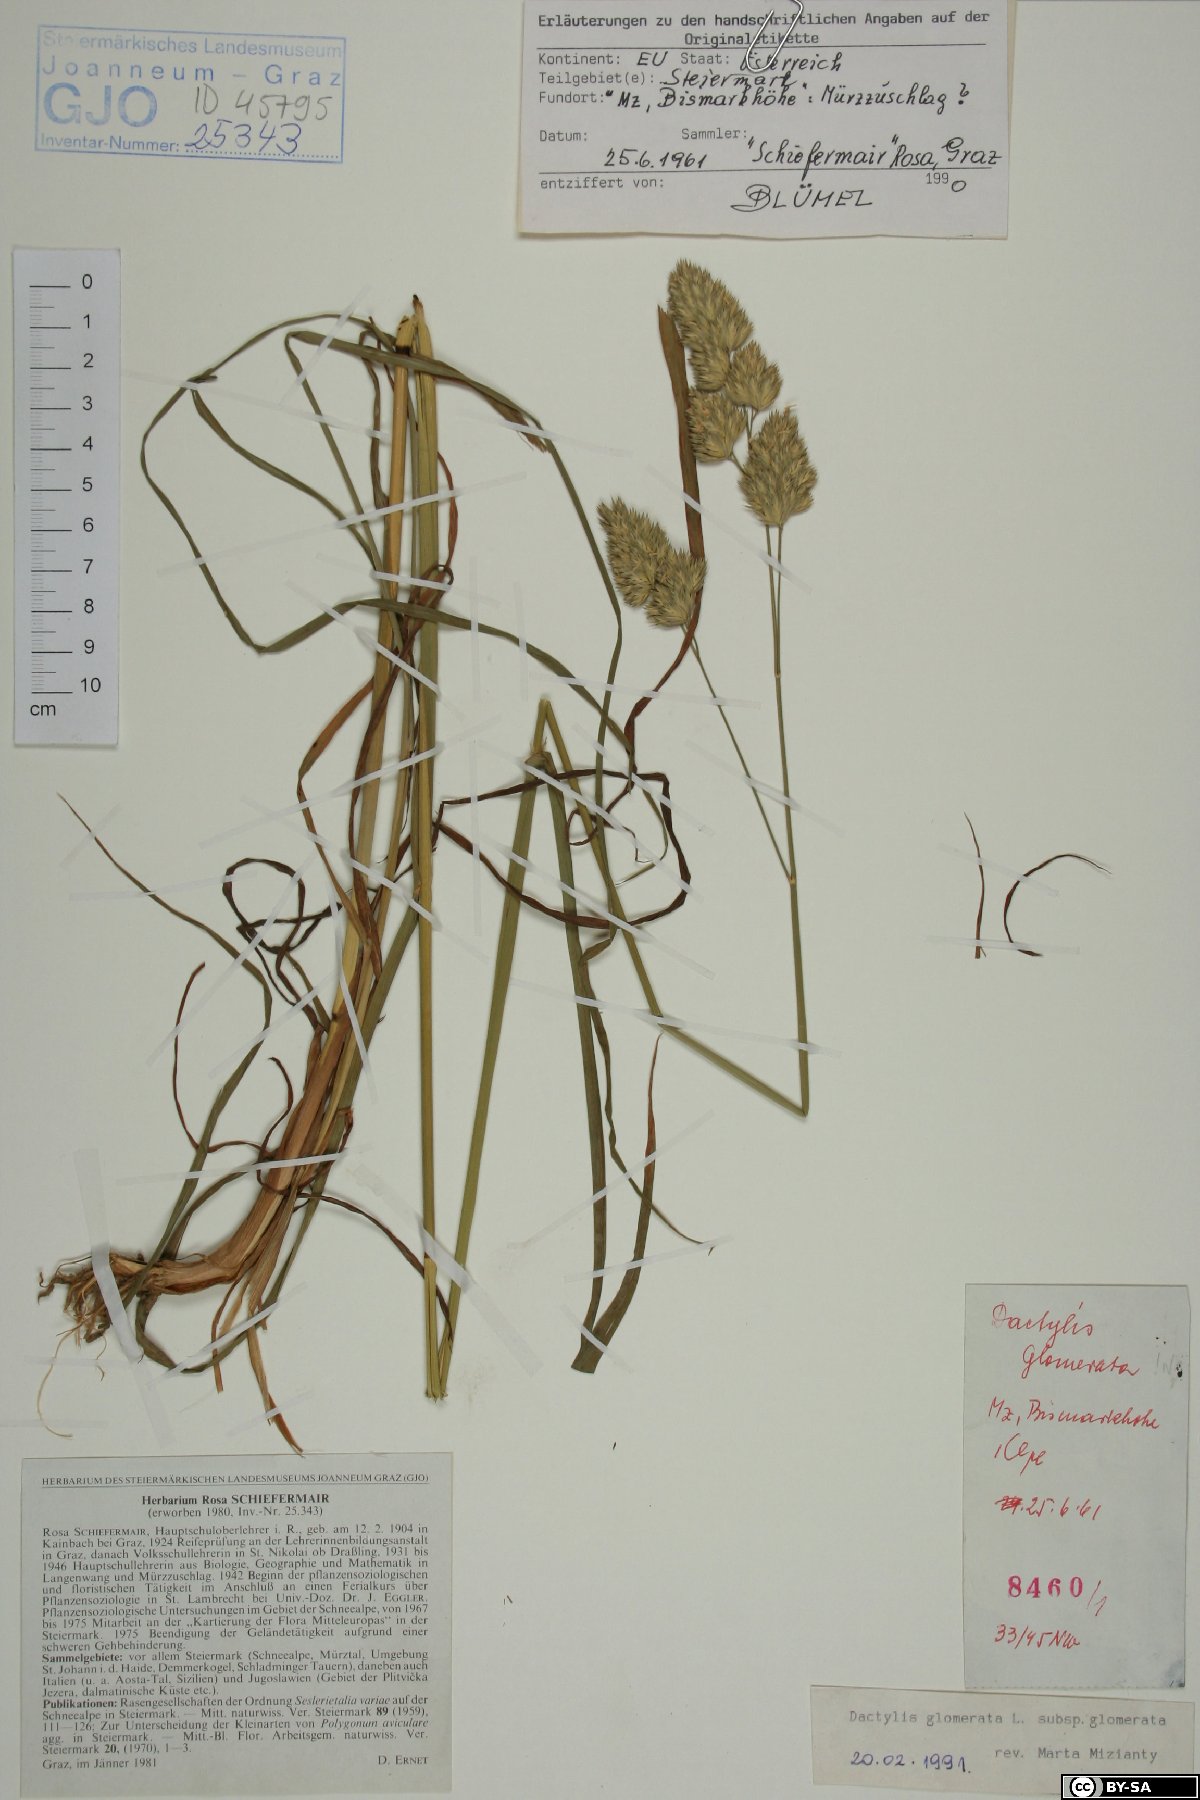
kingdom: Plantae
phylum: Tracheophyta
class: Liliopsida
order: Poales
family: Poaceae
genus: Dactylis
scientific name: Dactylis glomerata
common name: Orchardgrass
